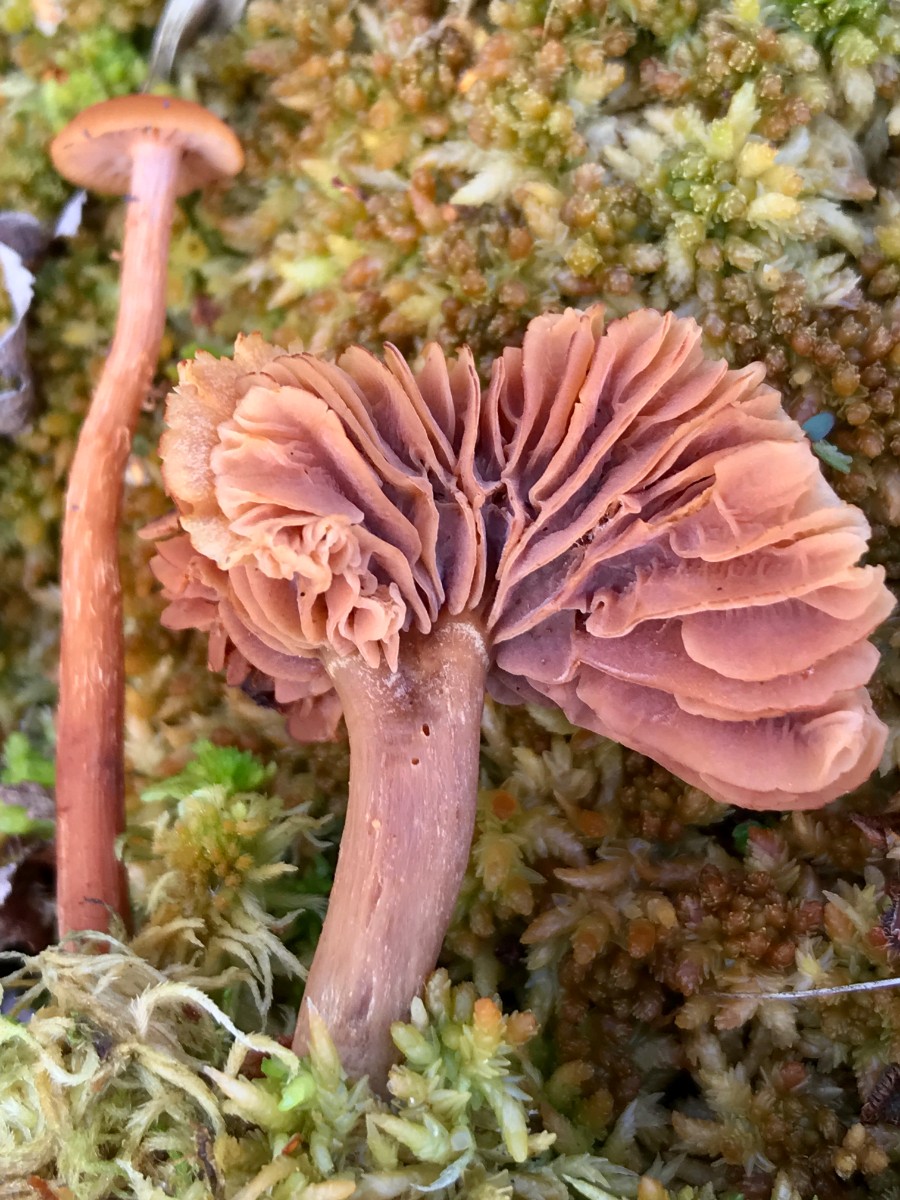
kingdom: Fungi
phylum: Basidiomycota
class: Agaricomycetes
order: Agaricales
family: Hydnangiaceae
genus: Laccaria
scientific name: Laccaria
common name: ametysthat
